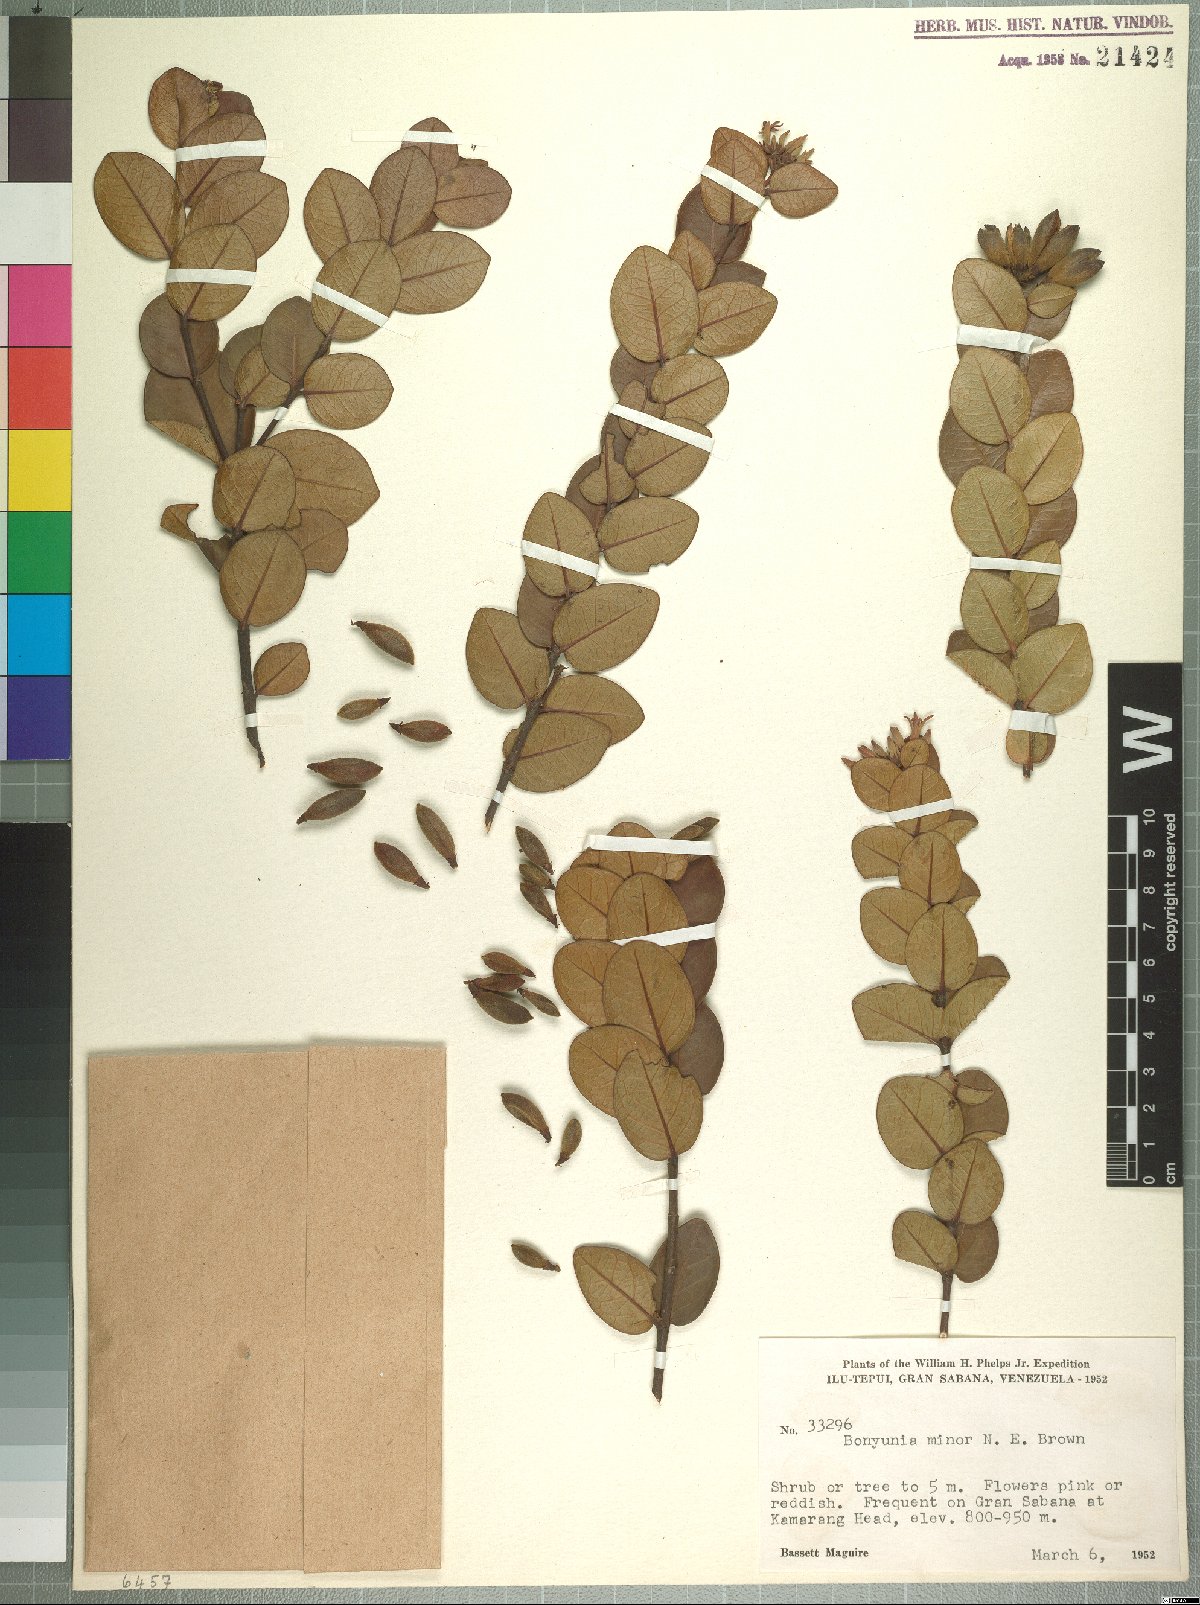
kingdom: Plantae
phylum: Tracheophyta
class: Magnoliopsida
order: Gentianales
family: Loganiaceae
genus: Bonyunia
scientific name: Bonyunia minor
